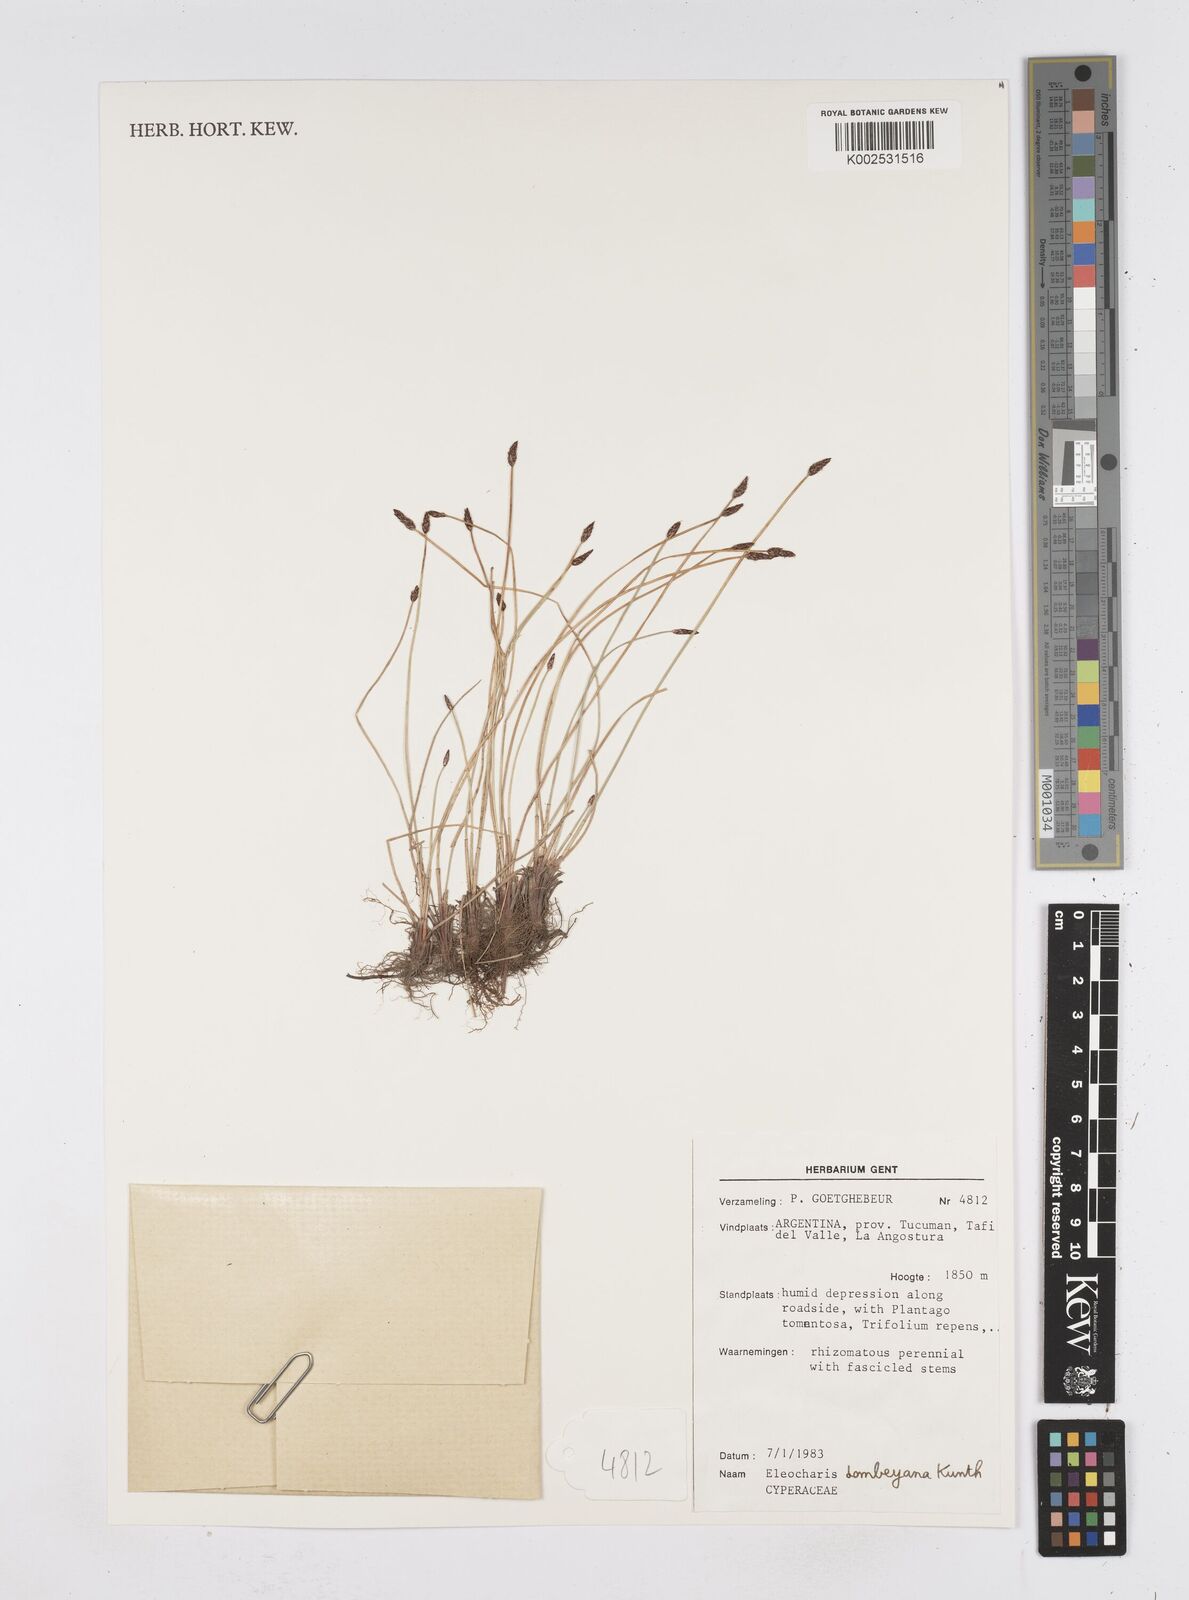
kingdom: Plantae
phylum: Tracheophyta
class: Liliopsida
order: Poales
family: Cyperaceae
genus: Eleocharis
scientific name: Eleocharis dombeyana
